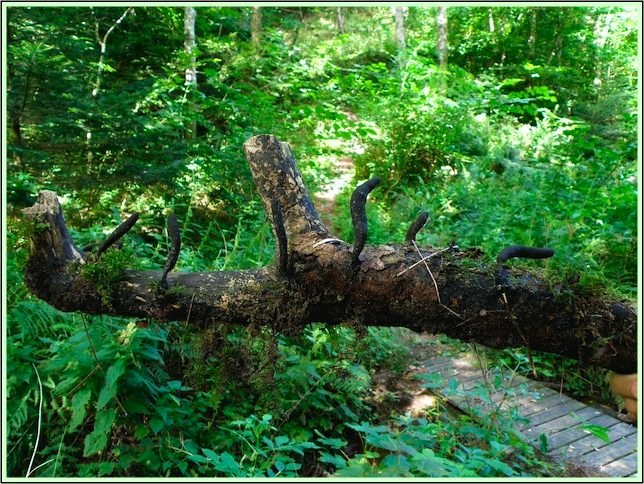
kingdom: Fungi
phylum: Ascomycota
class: Sordariomycetes
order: Xylariales
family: Xylariaceae
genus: Xylaria
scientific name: Xylaria longipes
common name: slank stødsvamp
